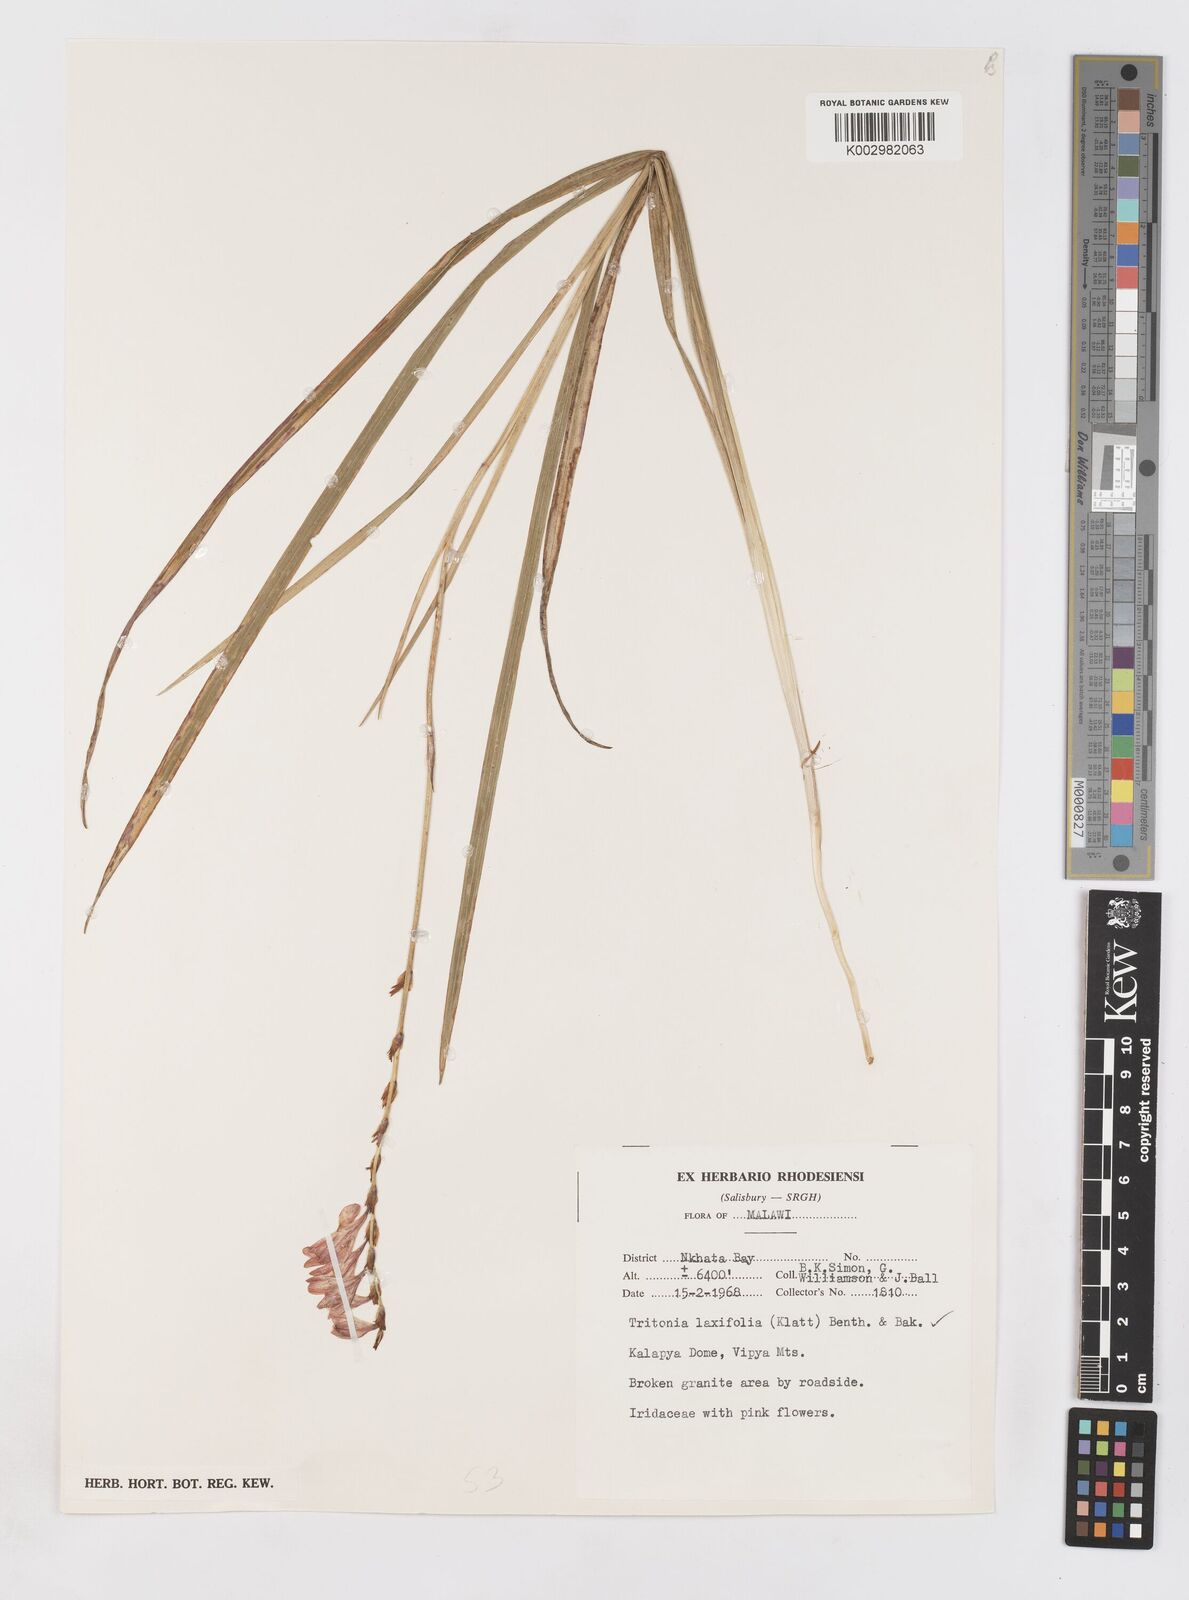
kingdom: Plantae
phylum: Tracheophyta
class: Liliopsida
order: Asparagales
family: Iridaceae
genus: Tritonia
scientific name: Tritonia laxifolia
